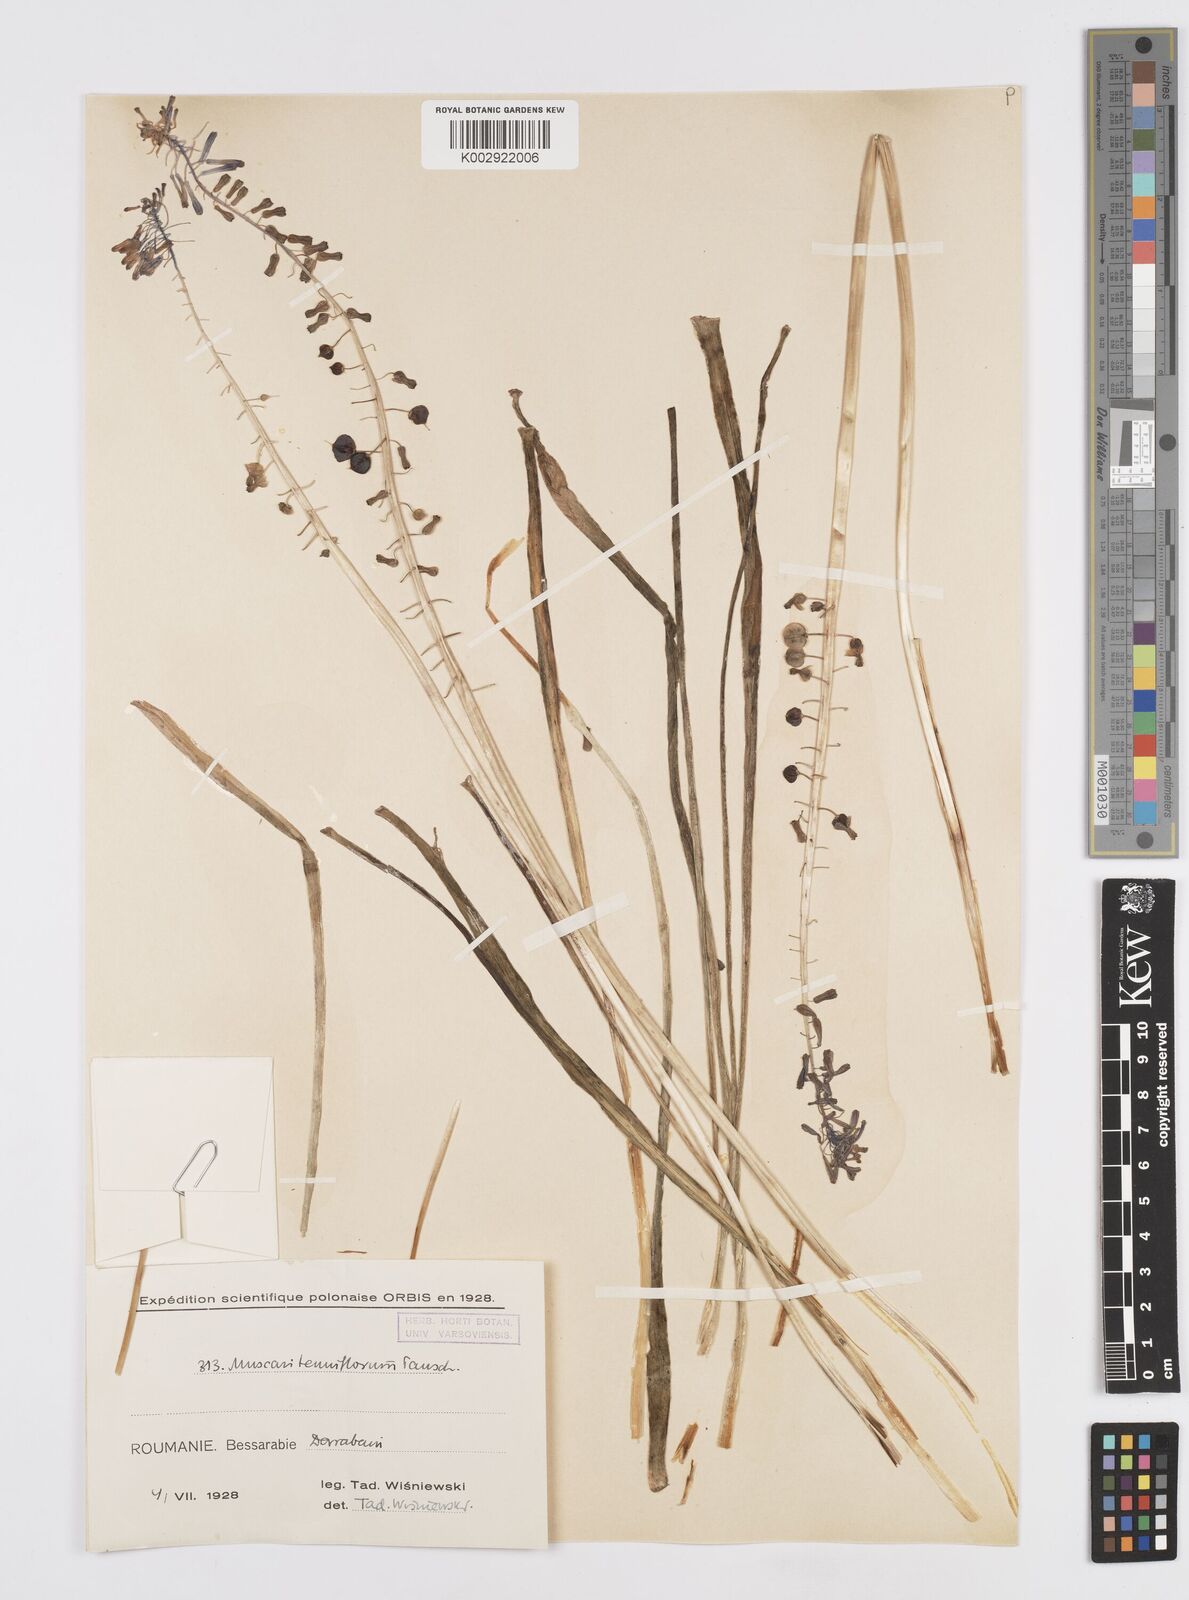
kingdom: Plantae
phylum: Tracheophyta
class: Liliopsida
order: Asparagales
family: Asparagaceae
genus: Muscari
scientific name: Muscari tenuiflorum
